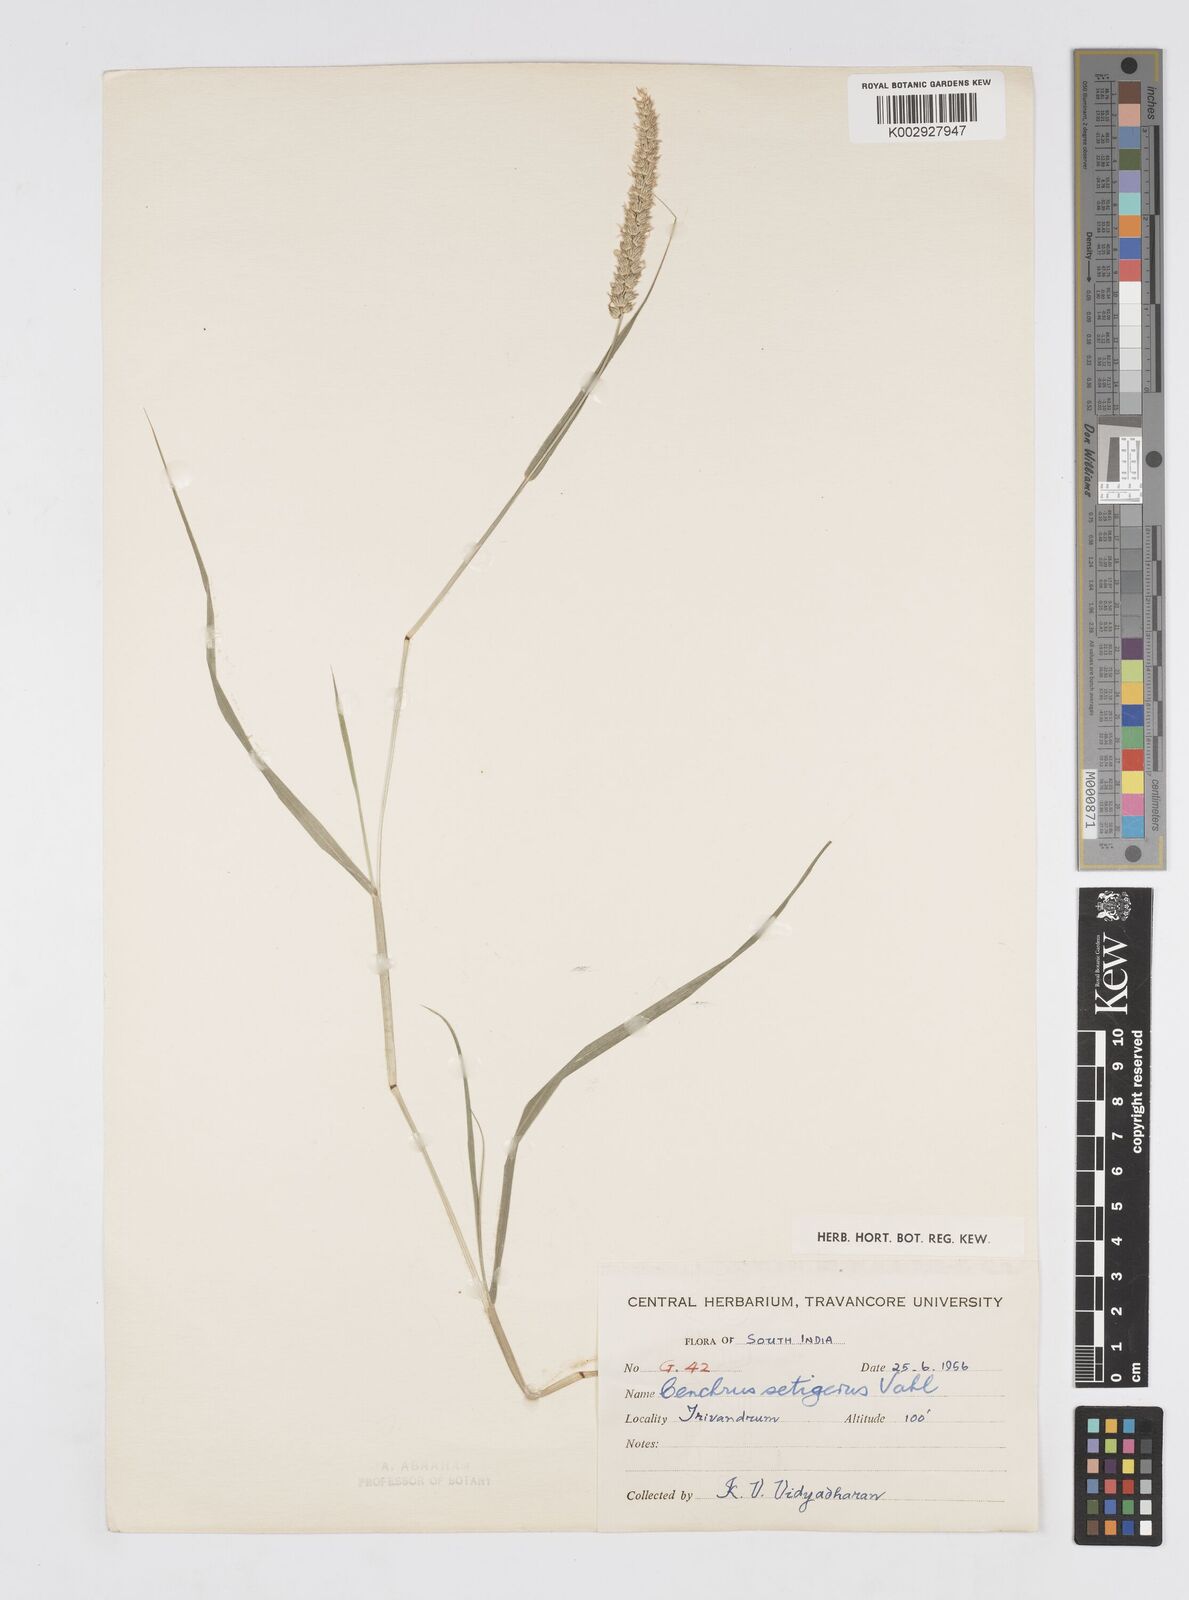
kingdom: Plantae
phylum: Tracheophyta
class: Liliopsida
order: Poales
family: Poaceae
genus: Cenchrus
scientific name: Cenchrus setigerus
